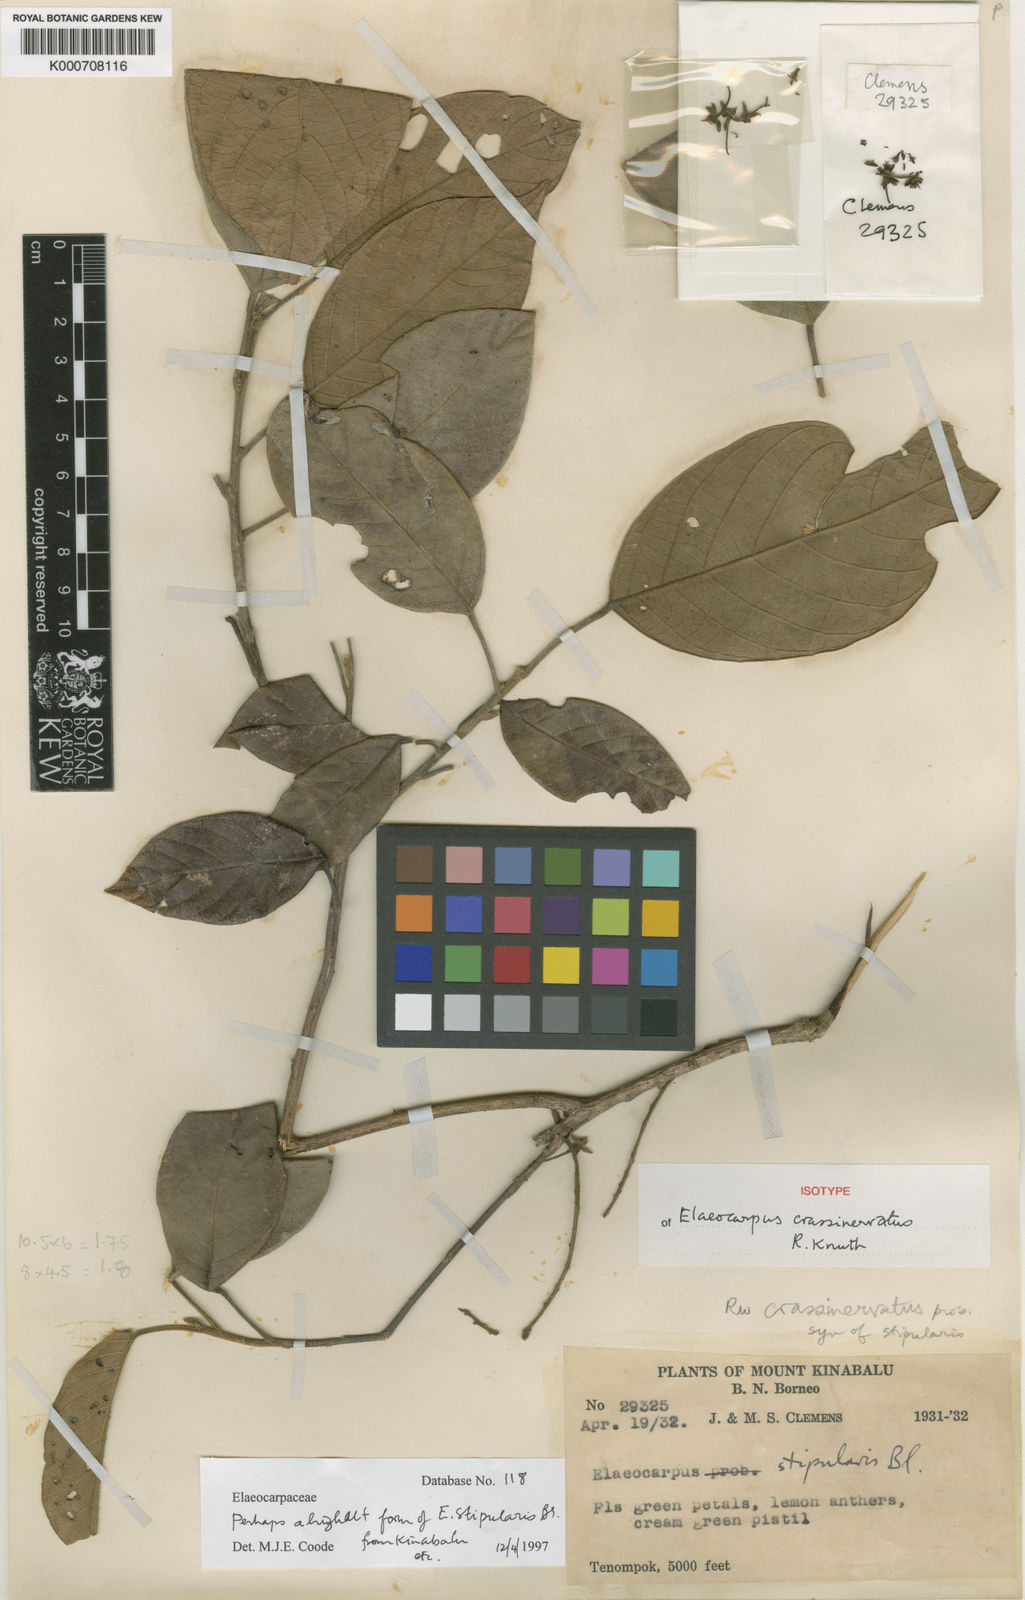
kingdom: Plantae
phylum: Tracheophyta
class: Magnoliopsida
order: Oxalidales
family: Elaeocarpaceae
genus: Elaeocarpus
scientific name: Elaeocarpus crassinervatus
